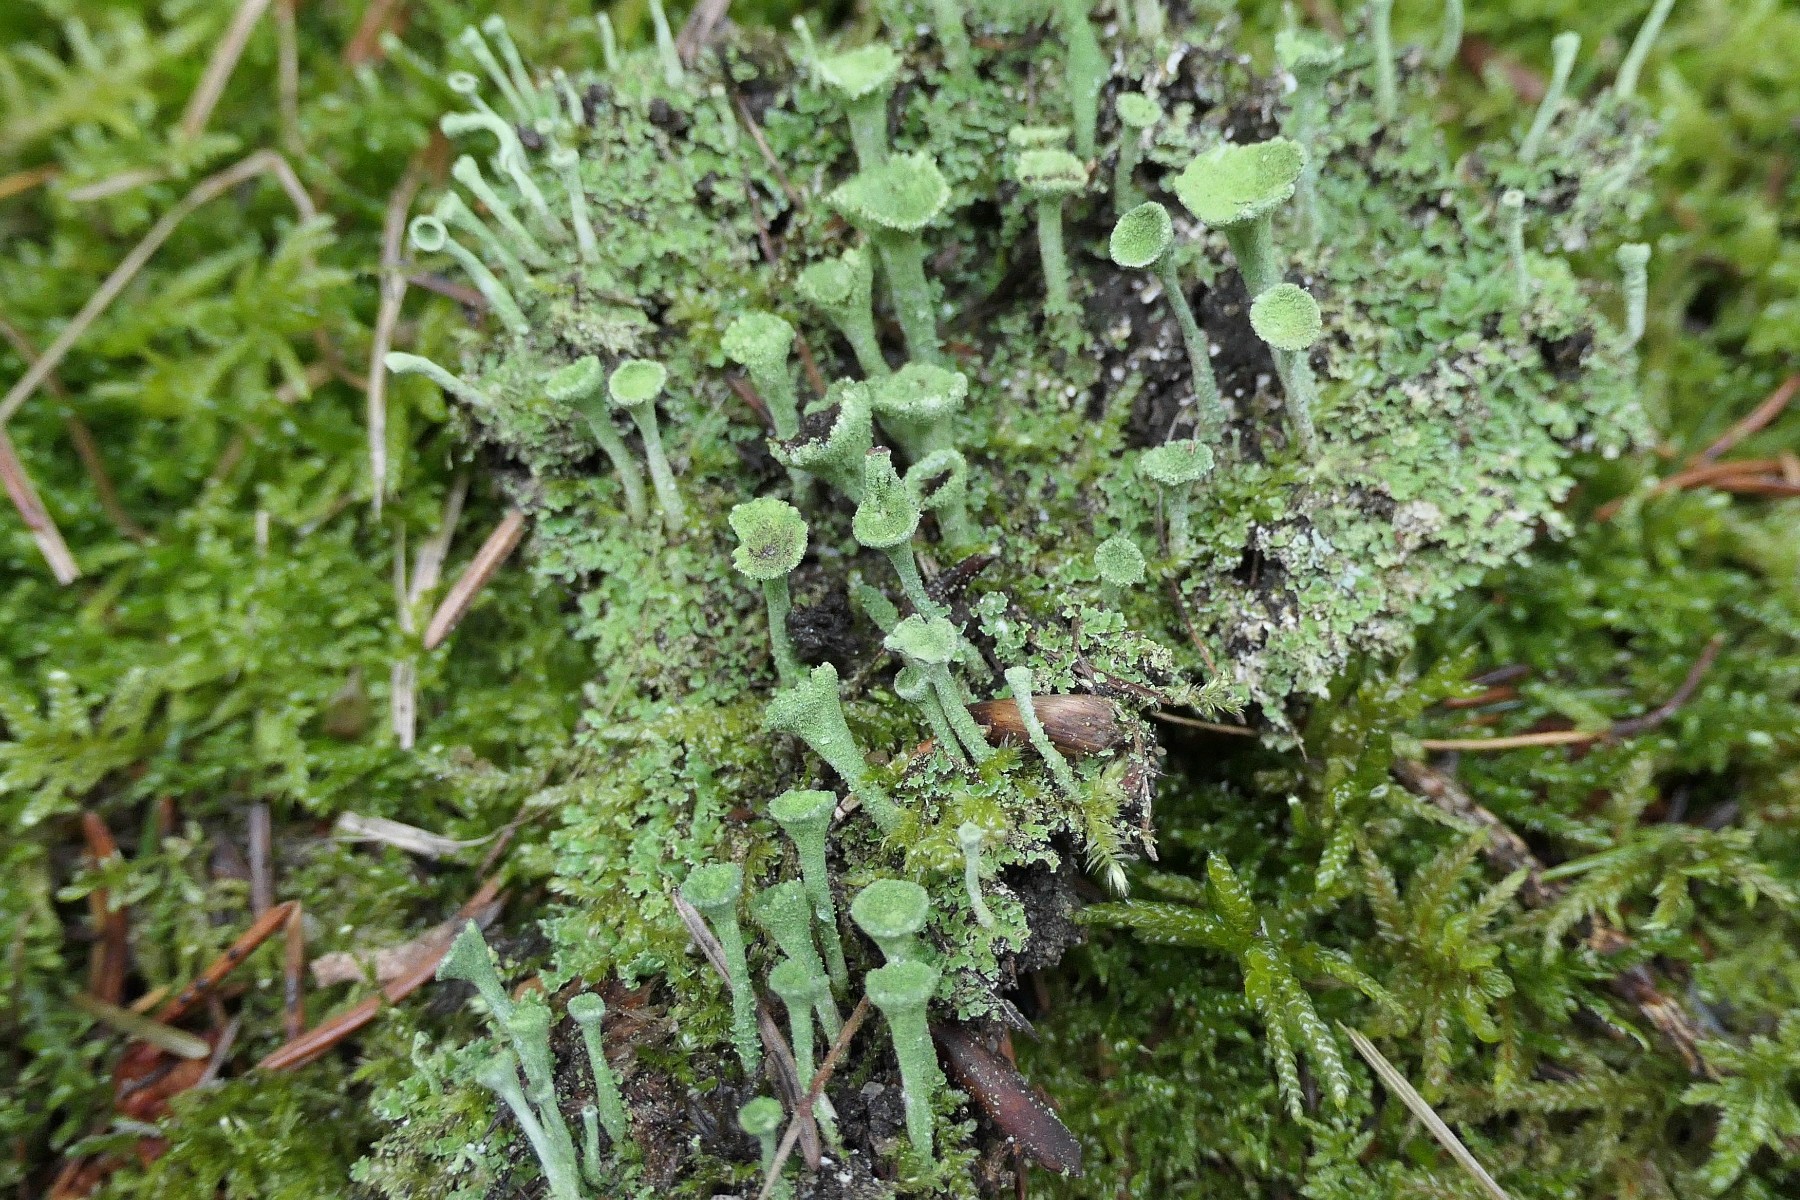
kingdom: Fungi
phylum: Ascomycota
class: Lecanoromycetes
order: Lecanorales
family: Cladoniaceae
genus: Cladonia
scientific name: Cladonia chlorophaea
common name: Mealy pixie cup
